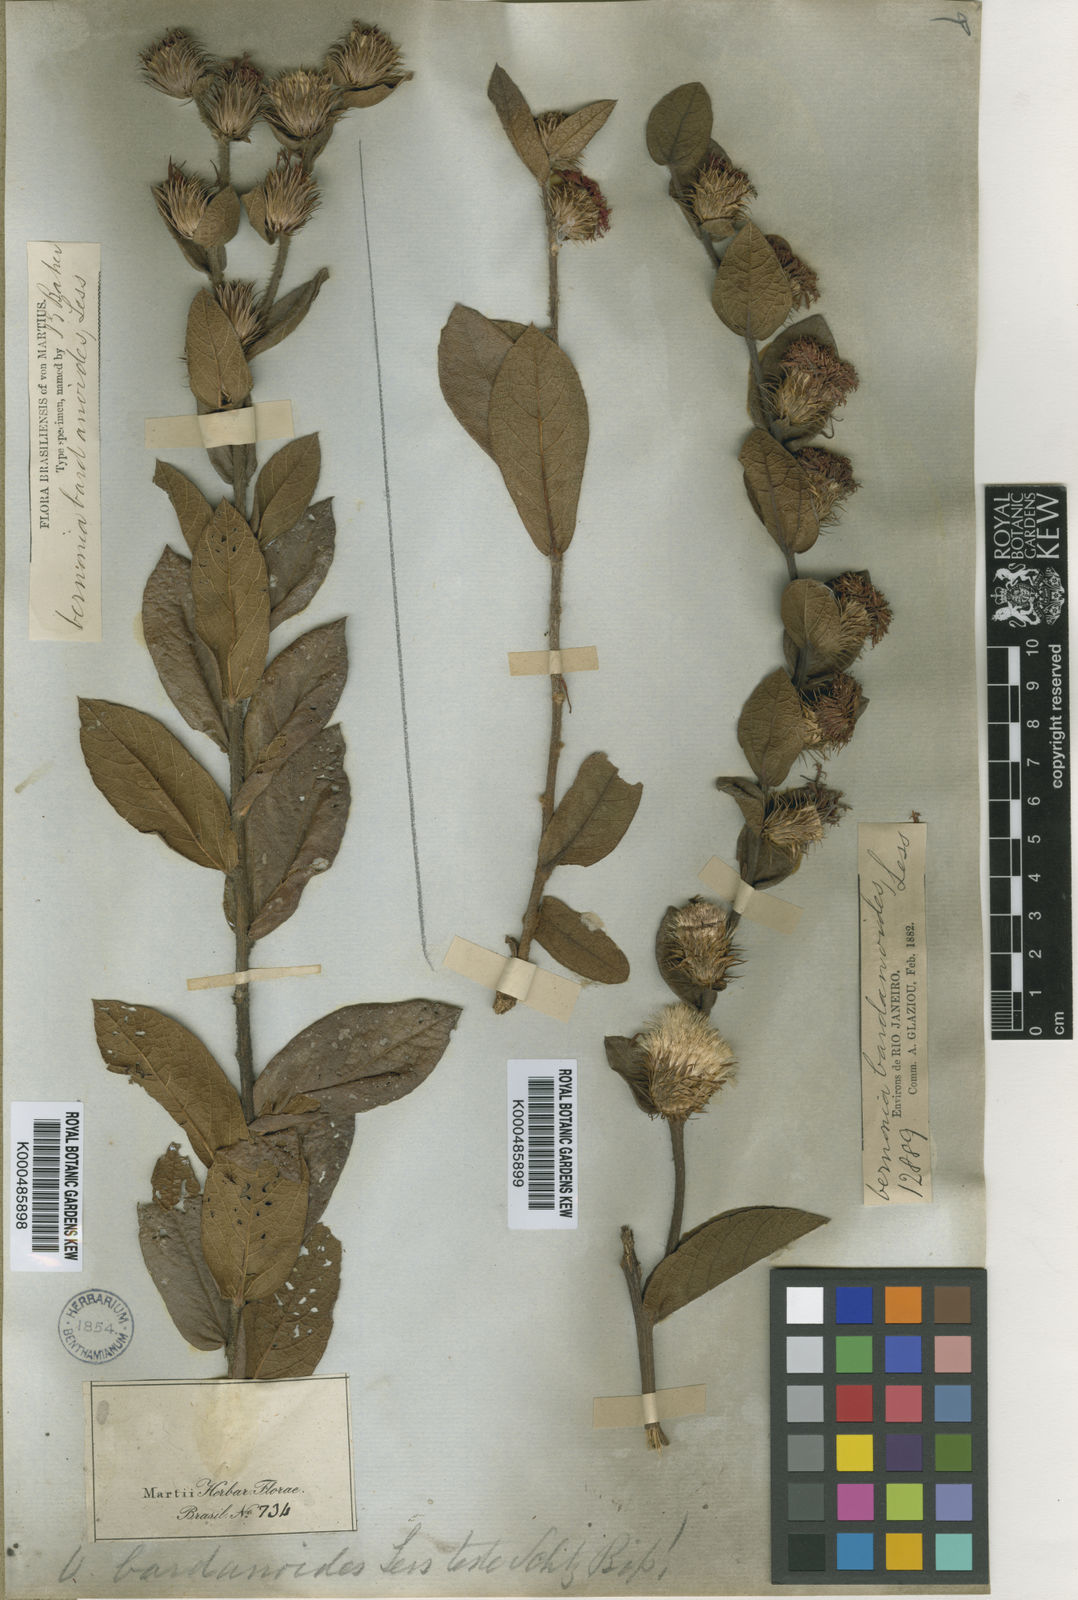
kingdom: Plantae
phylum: Tracheophyta
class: Magnoliopsida
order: Asterales
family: Asteraceae
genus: Lessingianthus
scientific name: Lessingianthus bardanioides
